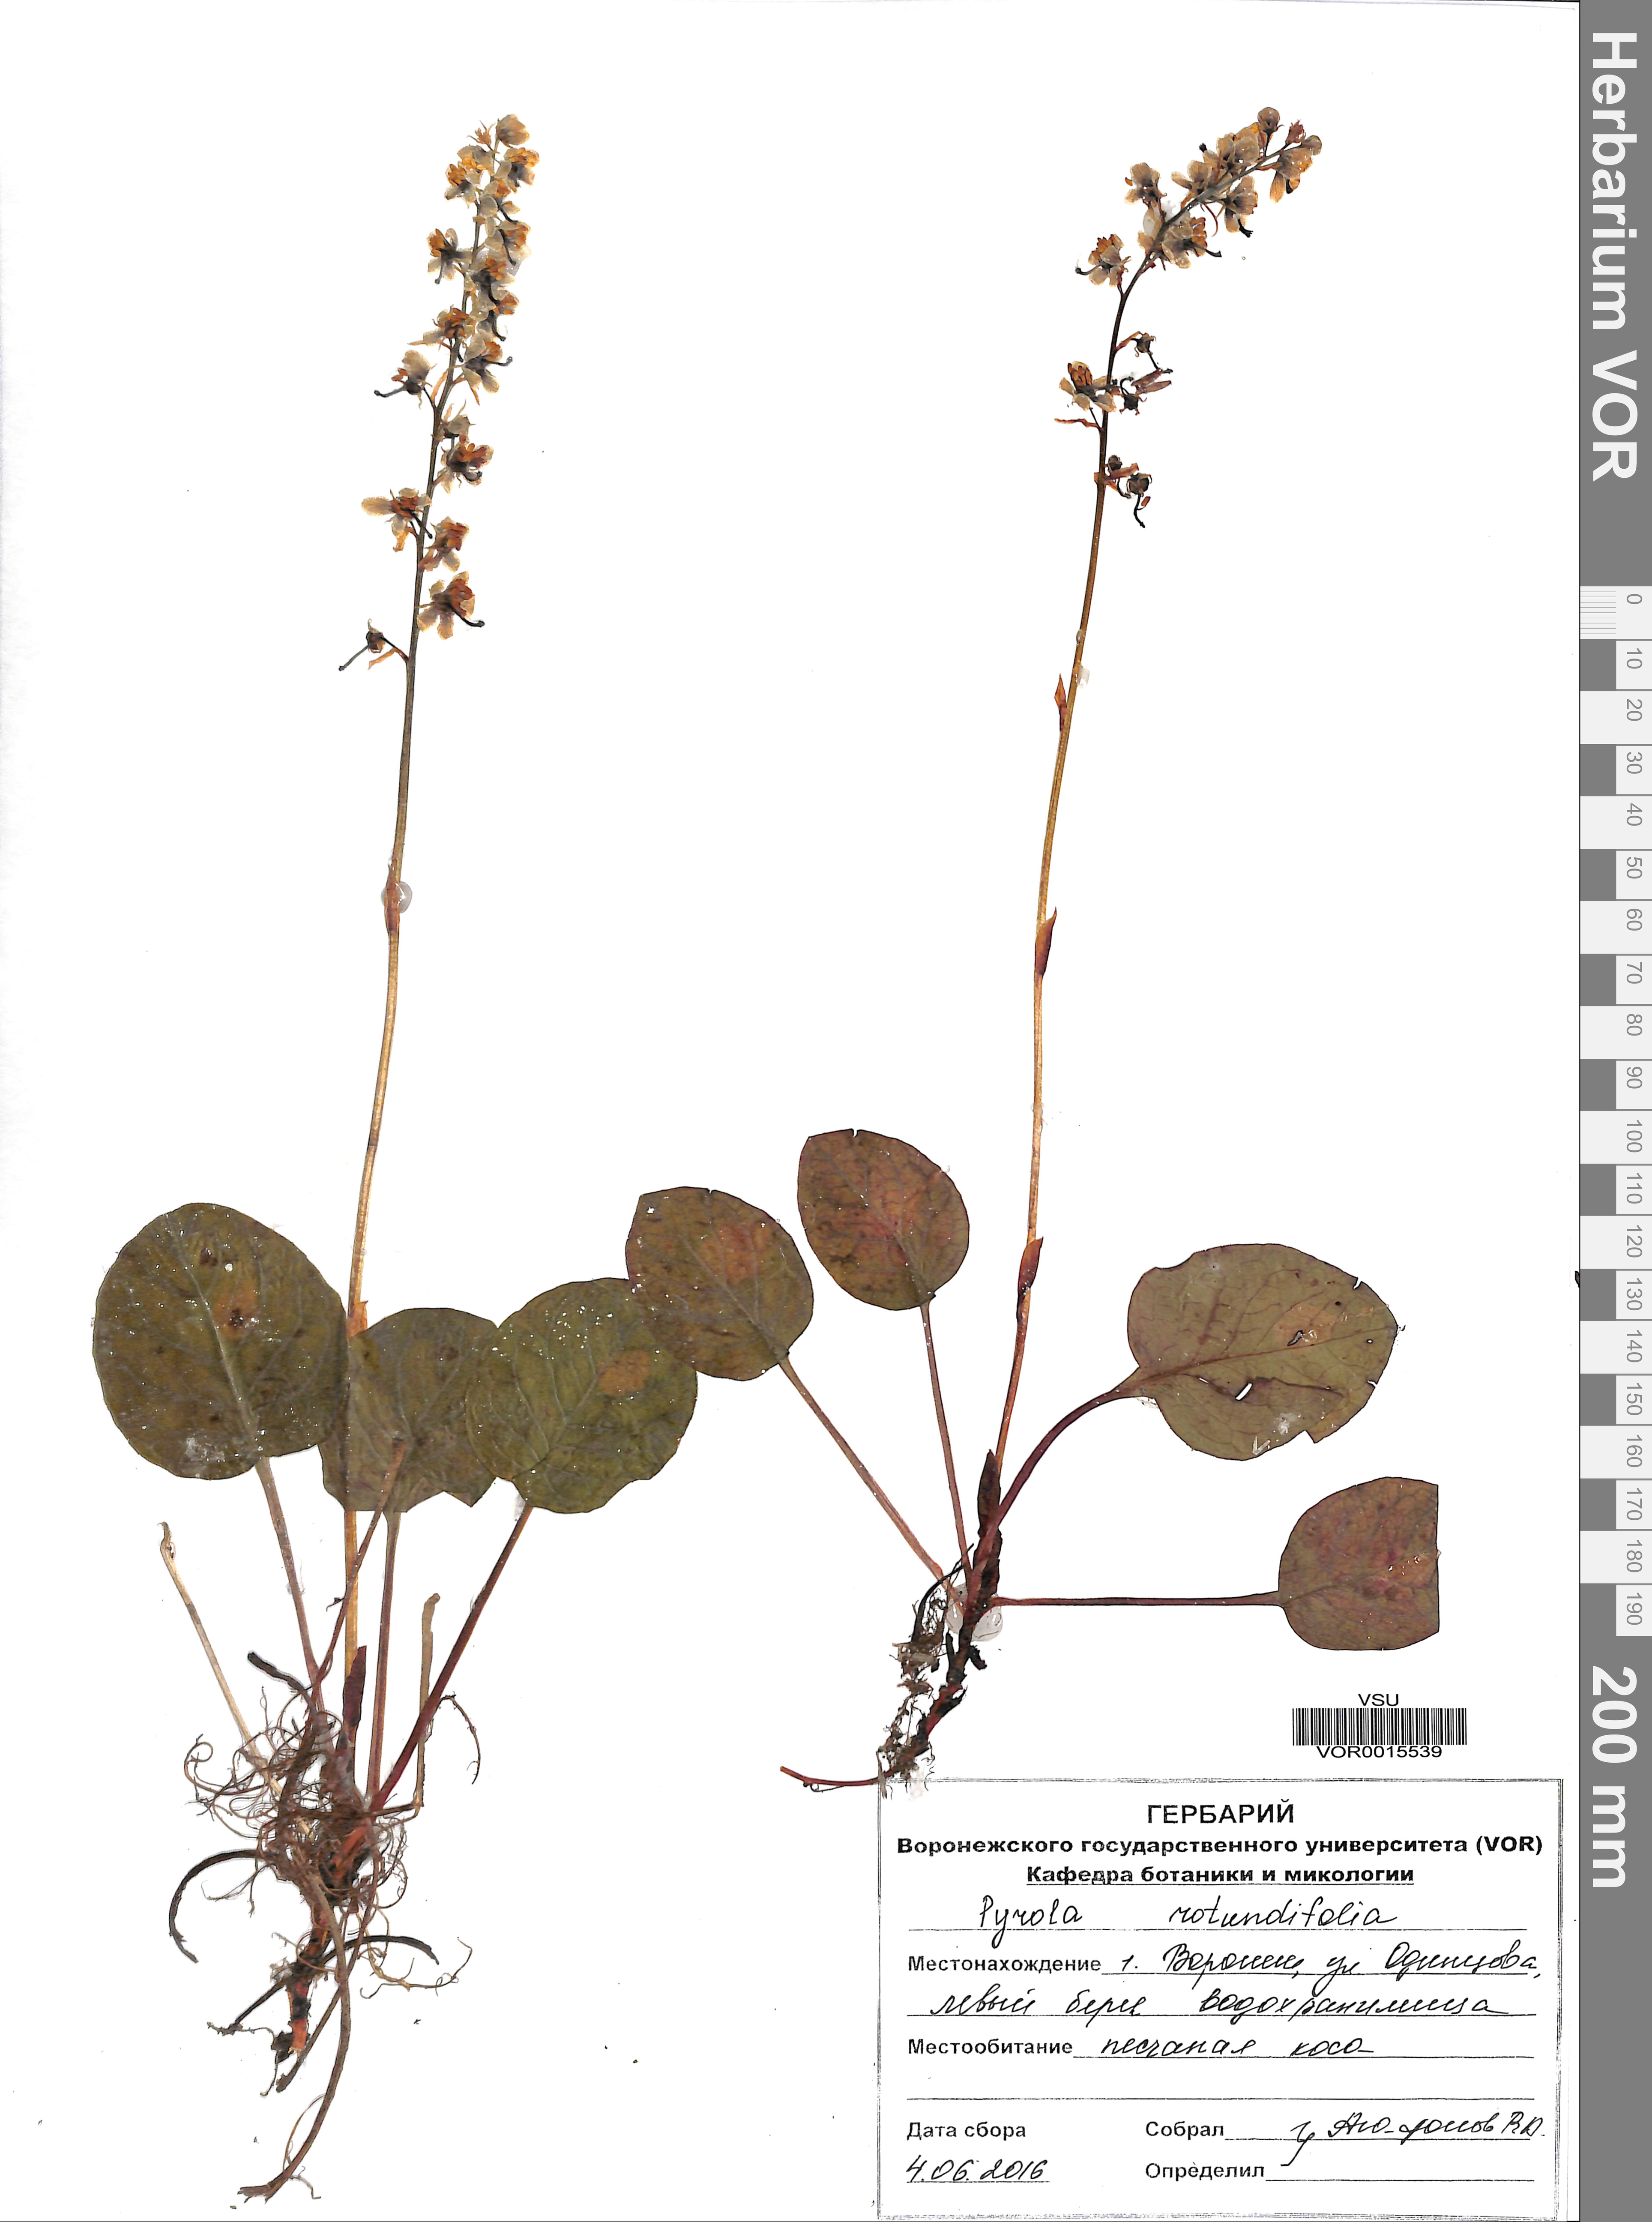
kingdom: Plantae
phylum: Tracheophyta
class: Magnoliopsida
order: Ericales
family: Ericaceae
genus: Pyrola
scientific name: Pyrola rotundifolia
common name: Round-leaved wintergreen
